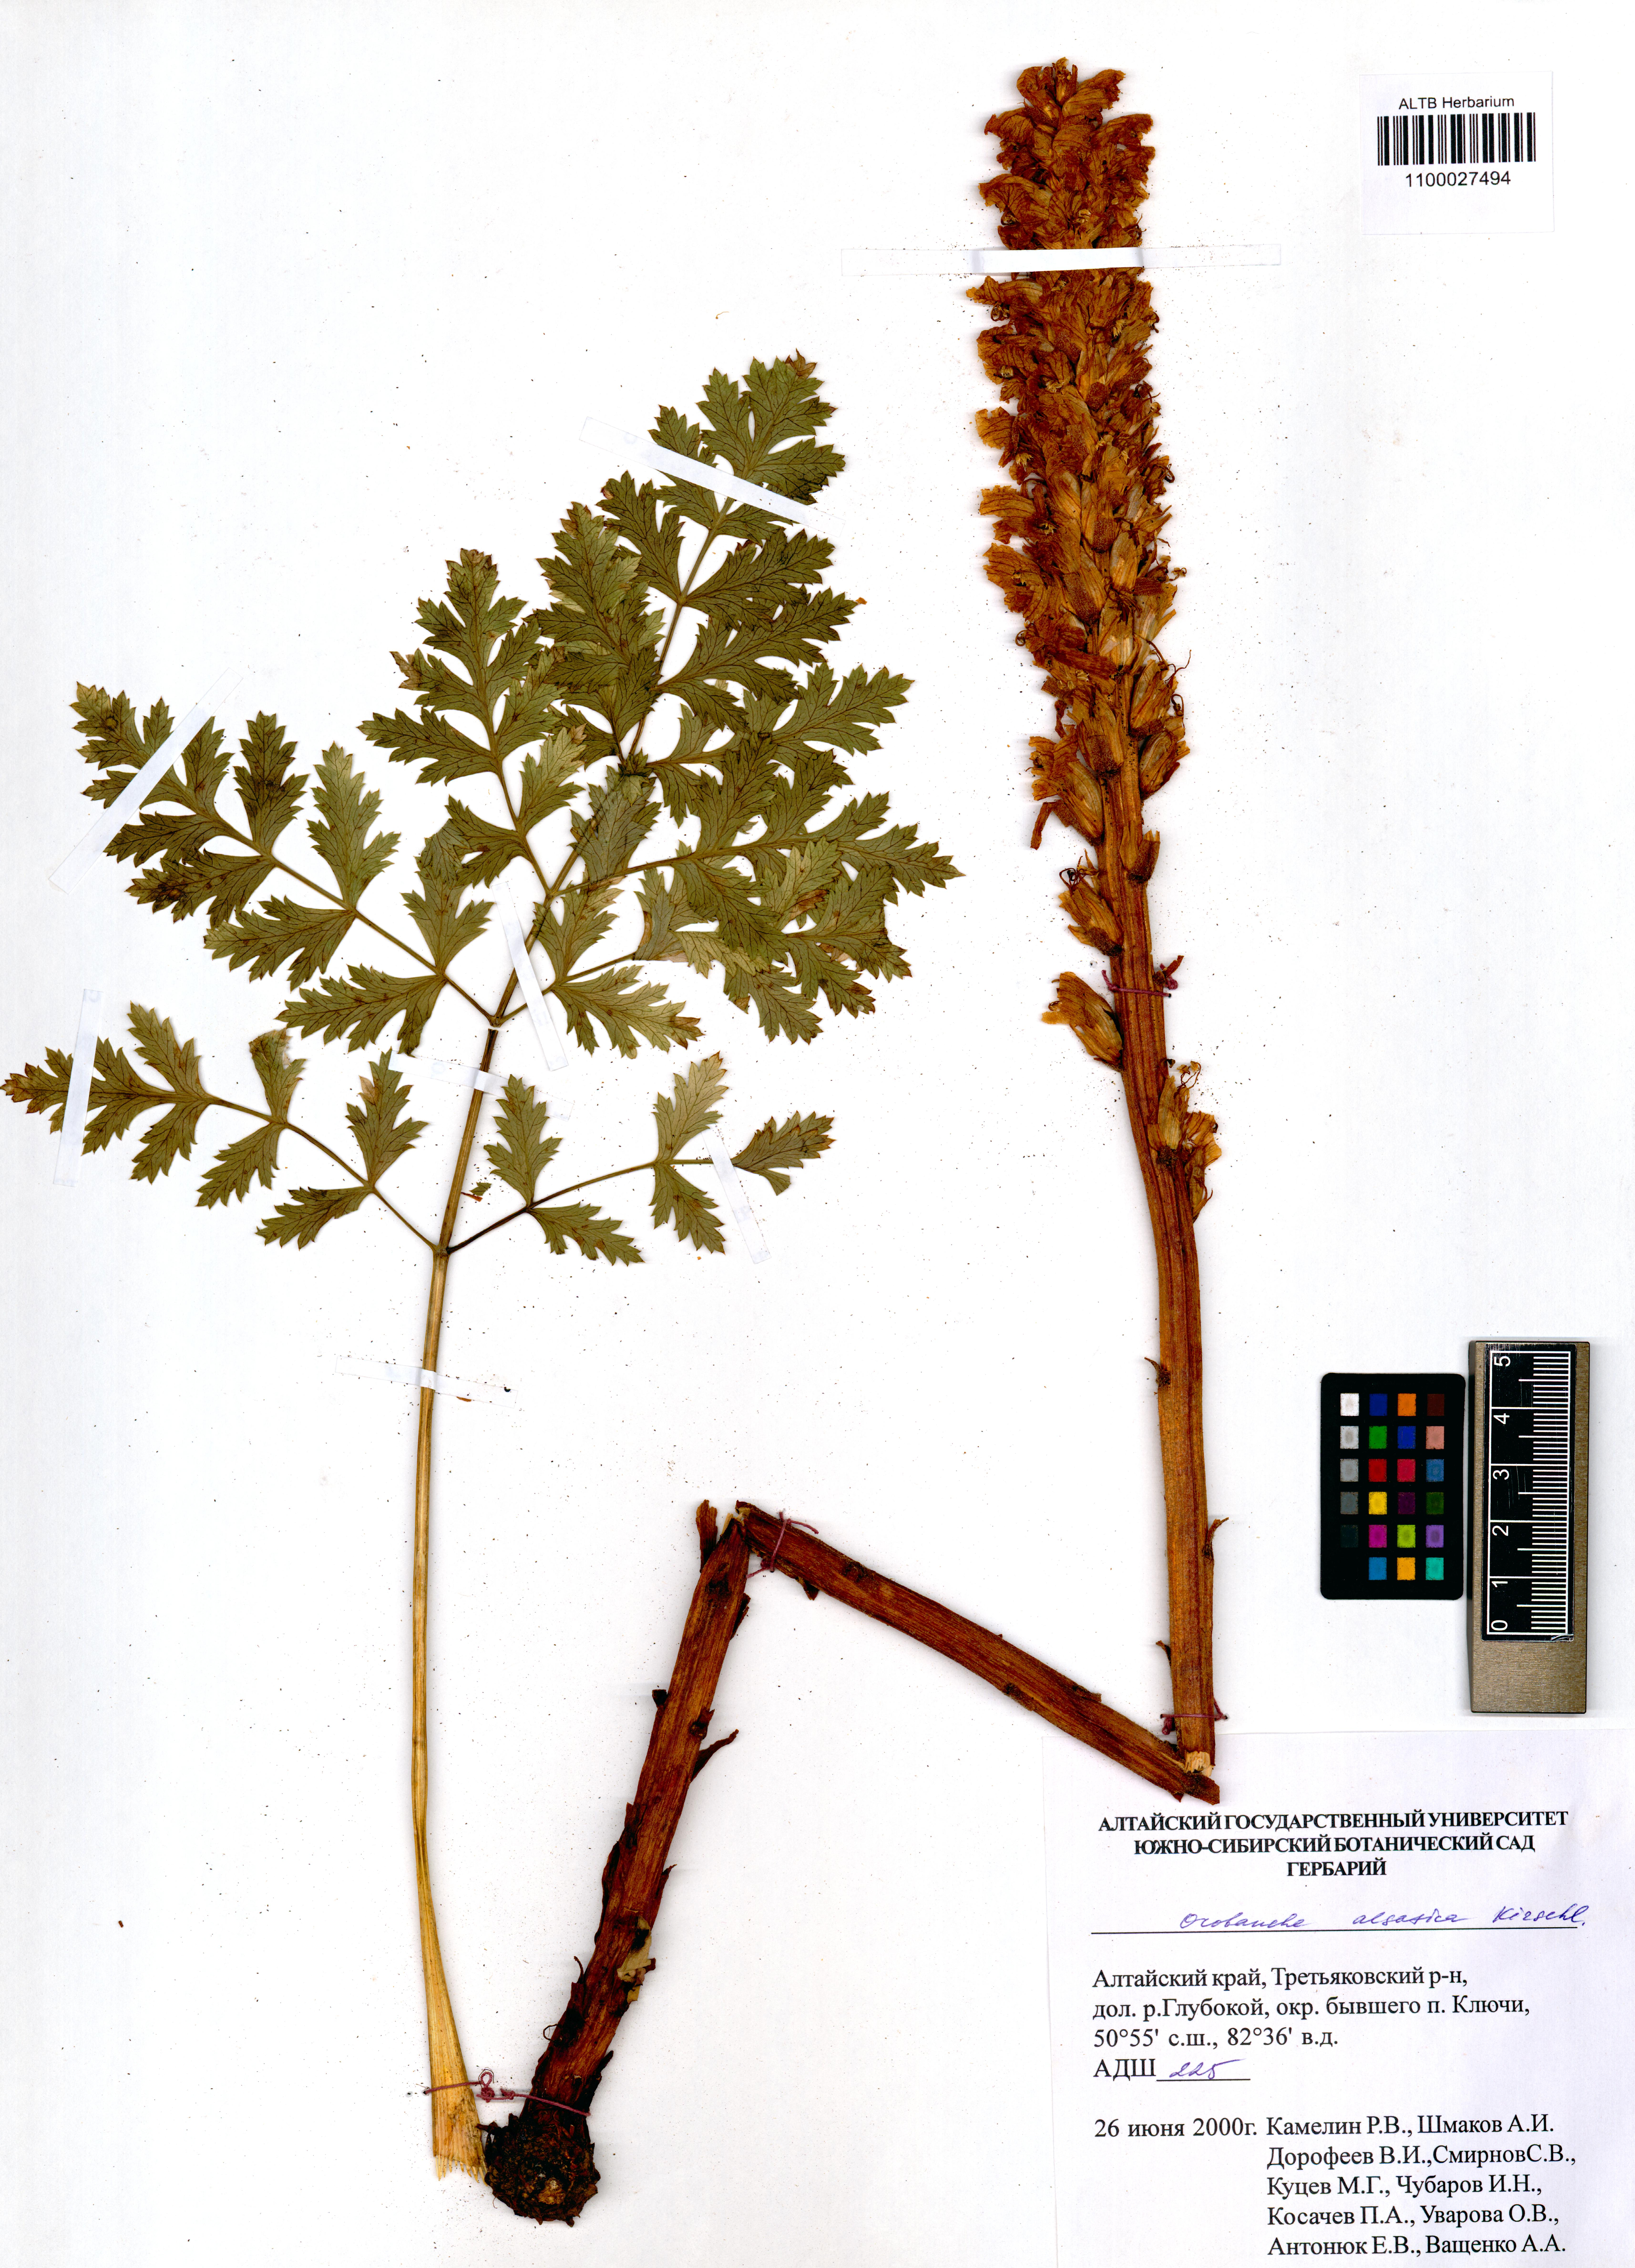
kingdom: Plantae
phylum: Tracheophyta
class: Magnoliopsida
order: Lamiales
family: Orobanchaceae
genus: Orobanche
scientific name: Orobanche alsatica
